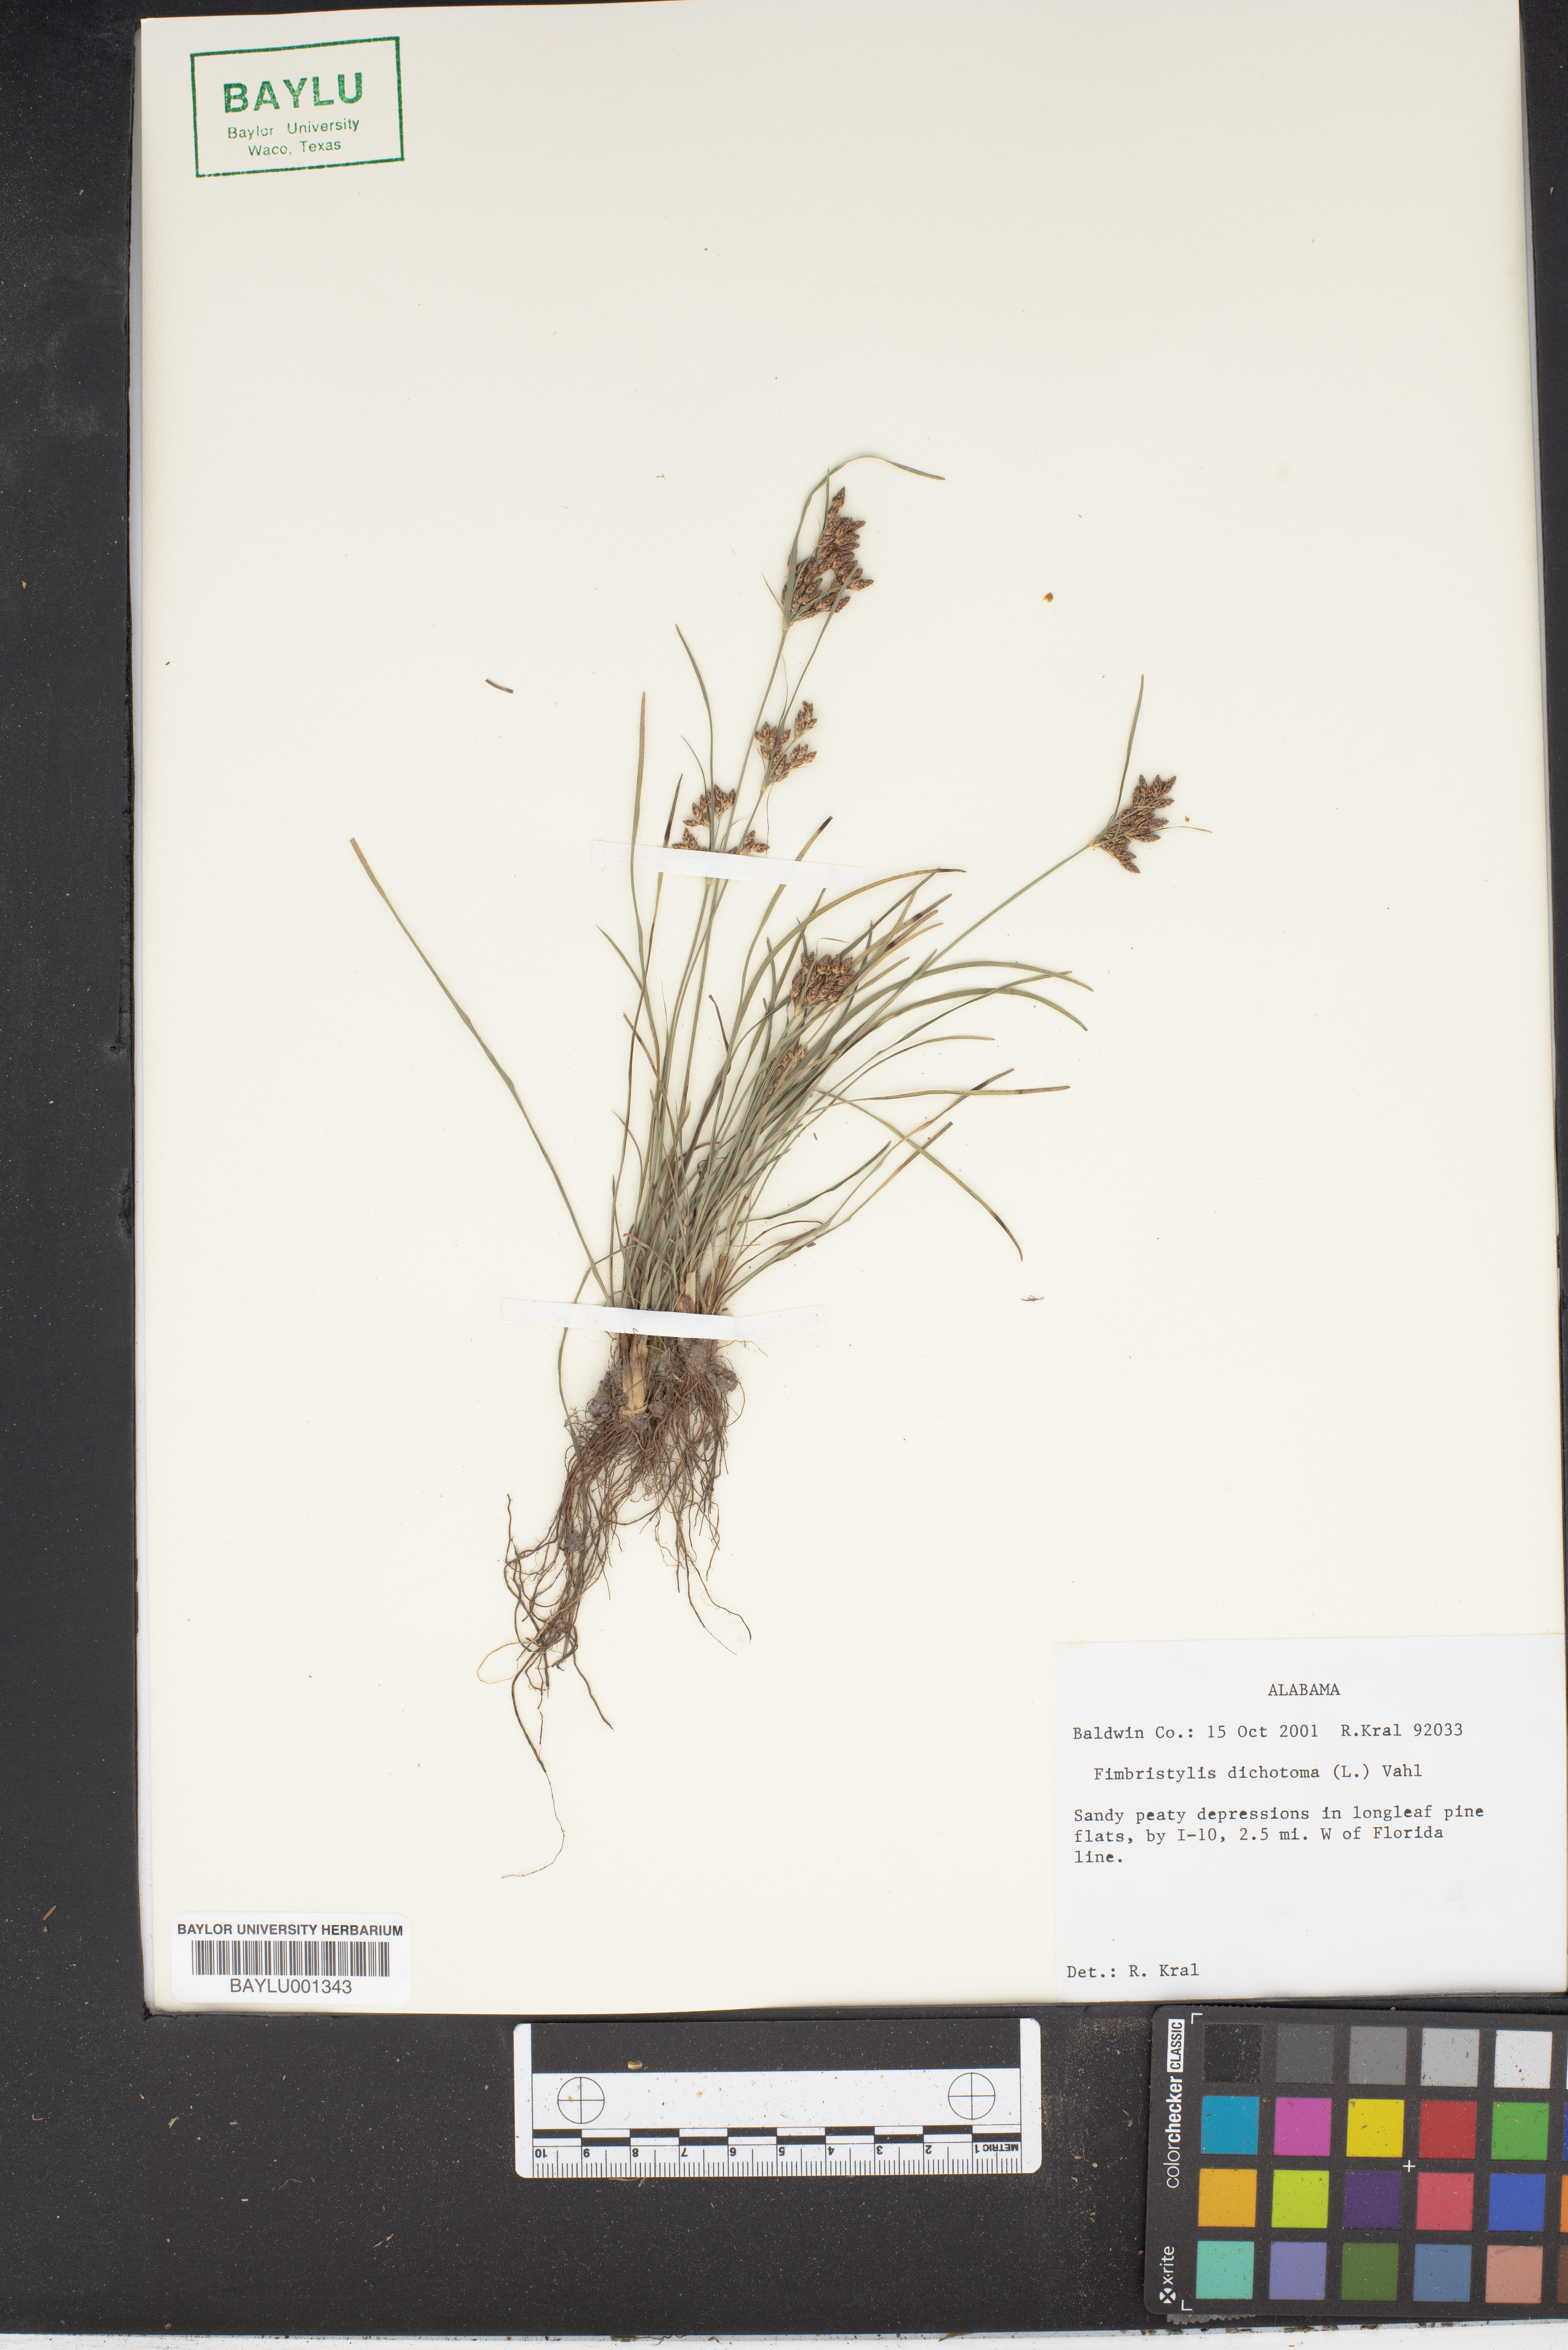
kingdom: Plantae
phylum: Tracheophyta
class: Liliopsida
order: Poales
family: Cyperaceae
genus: Fimbristylis
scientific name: Fimbristylis dichotoma
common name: Forked fimbry
